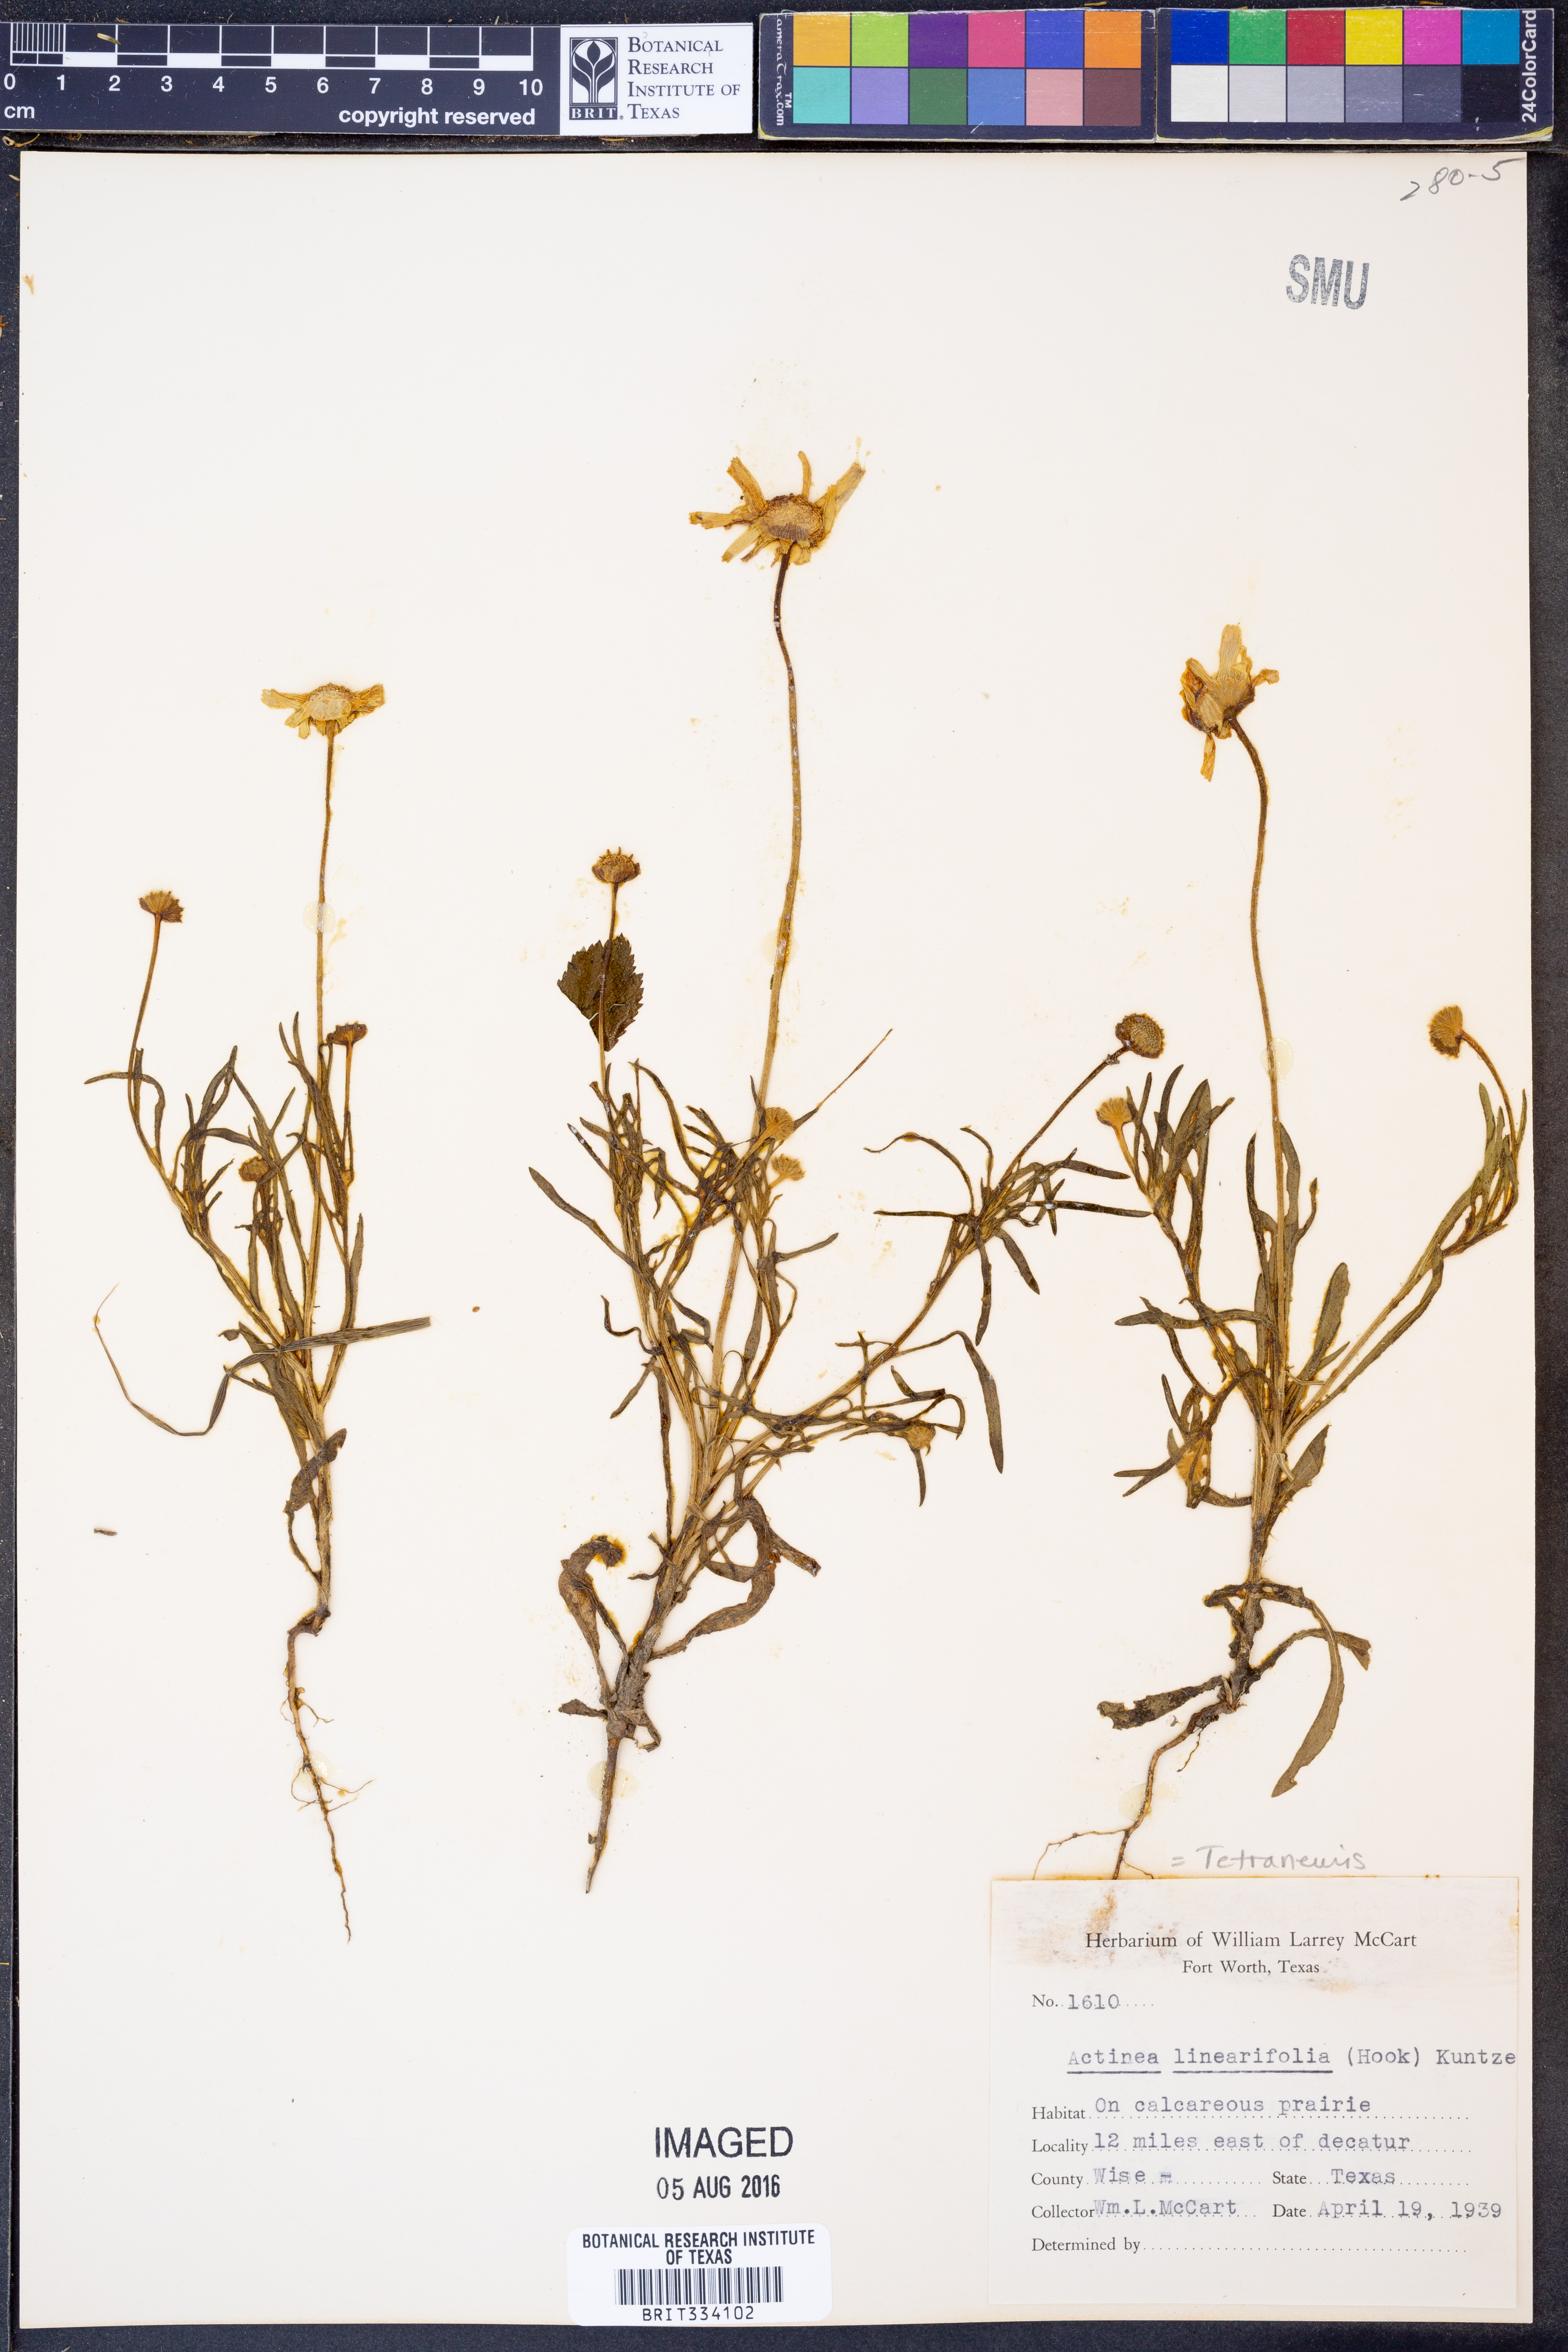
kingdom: Plantae
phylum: Tracheophyta
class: Magnoliopsida
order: Asterales
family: Asteraceae
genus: Tetraneuris
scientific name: Tetraneuris linearifolia
